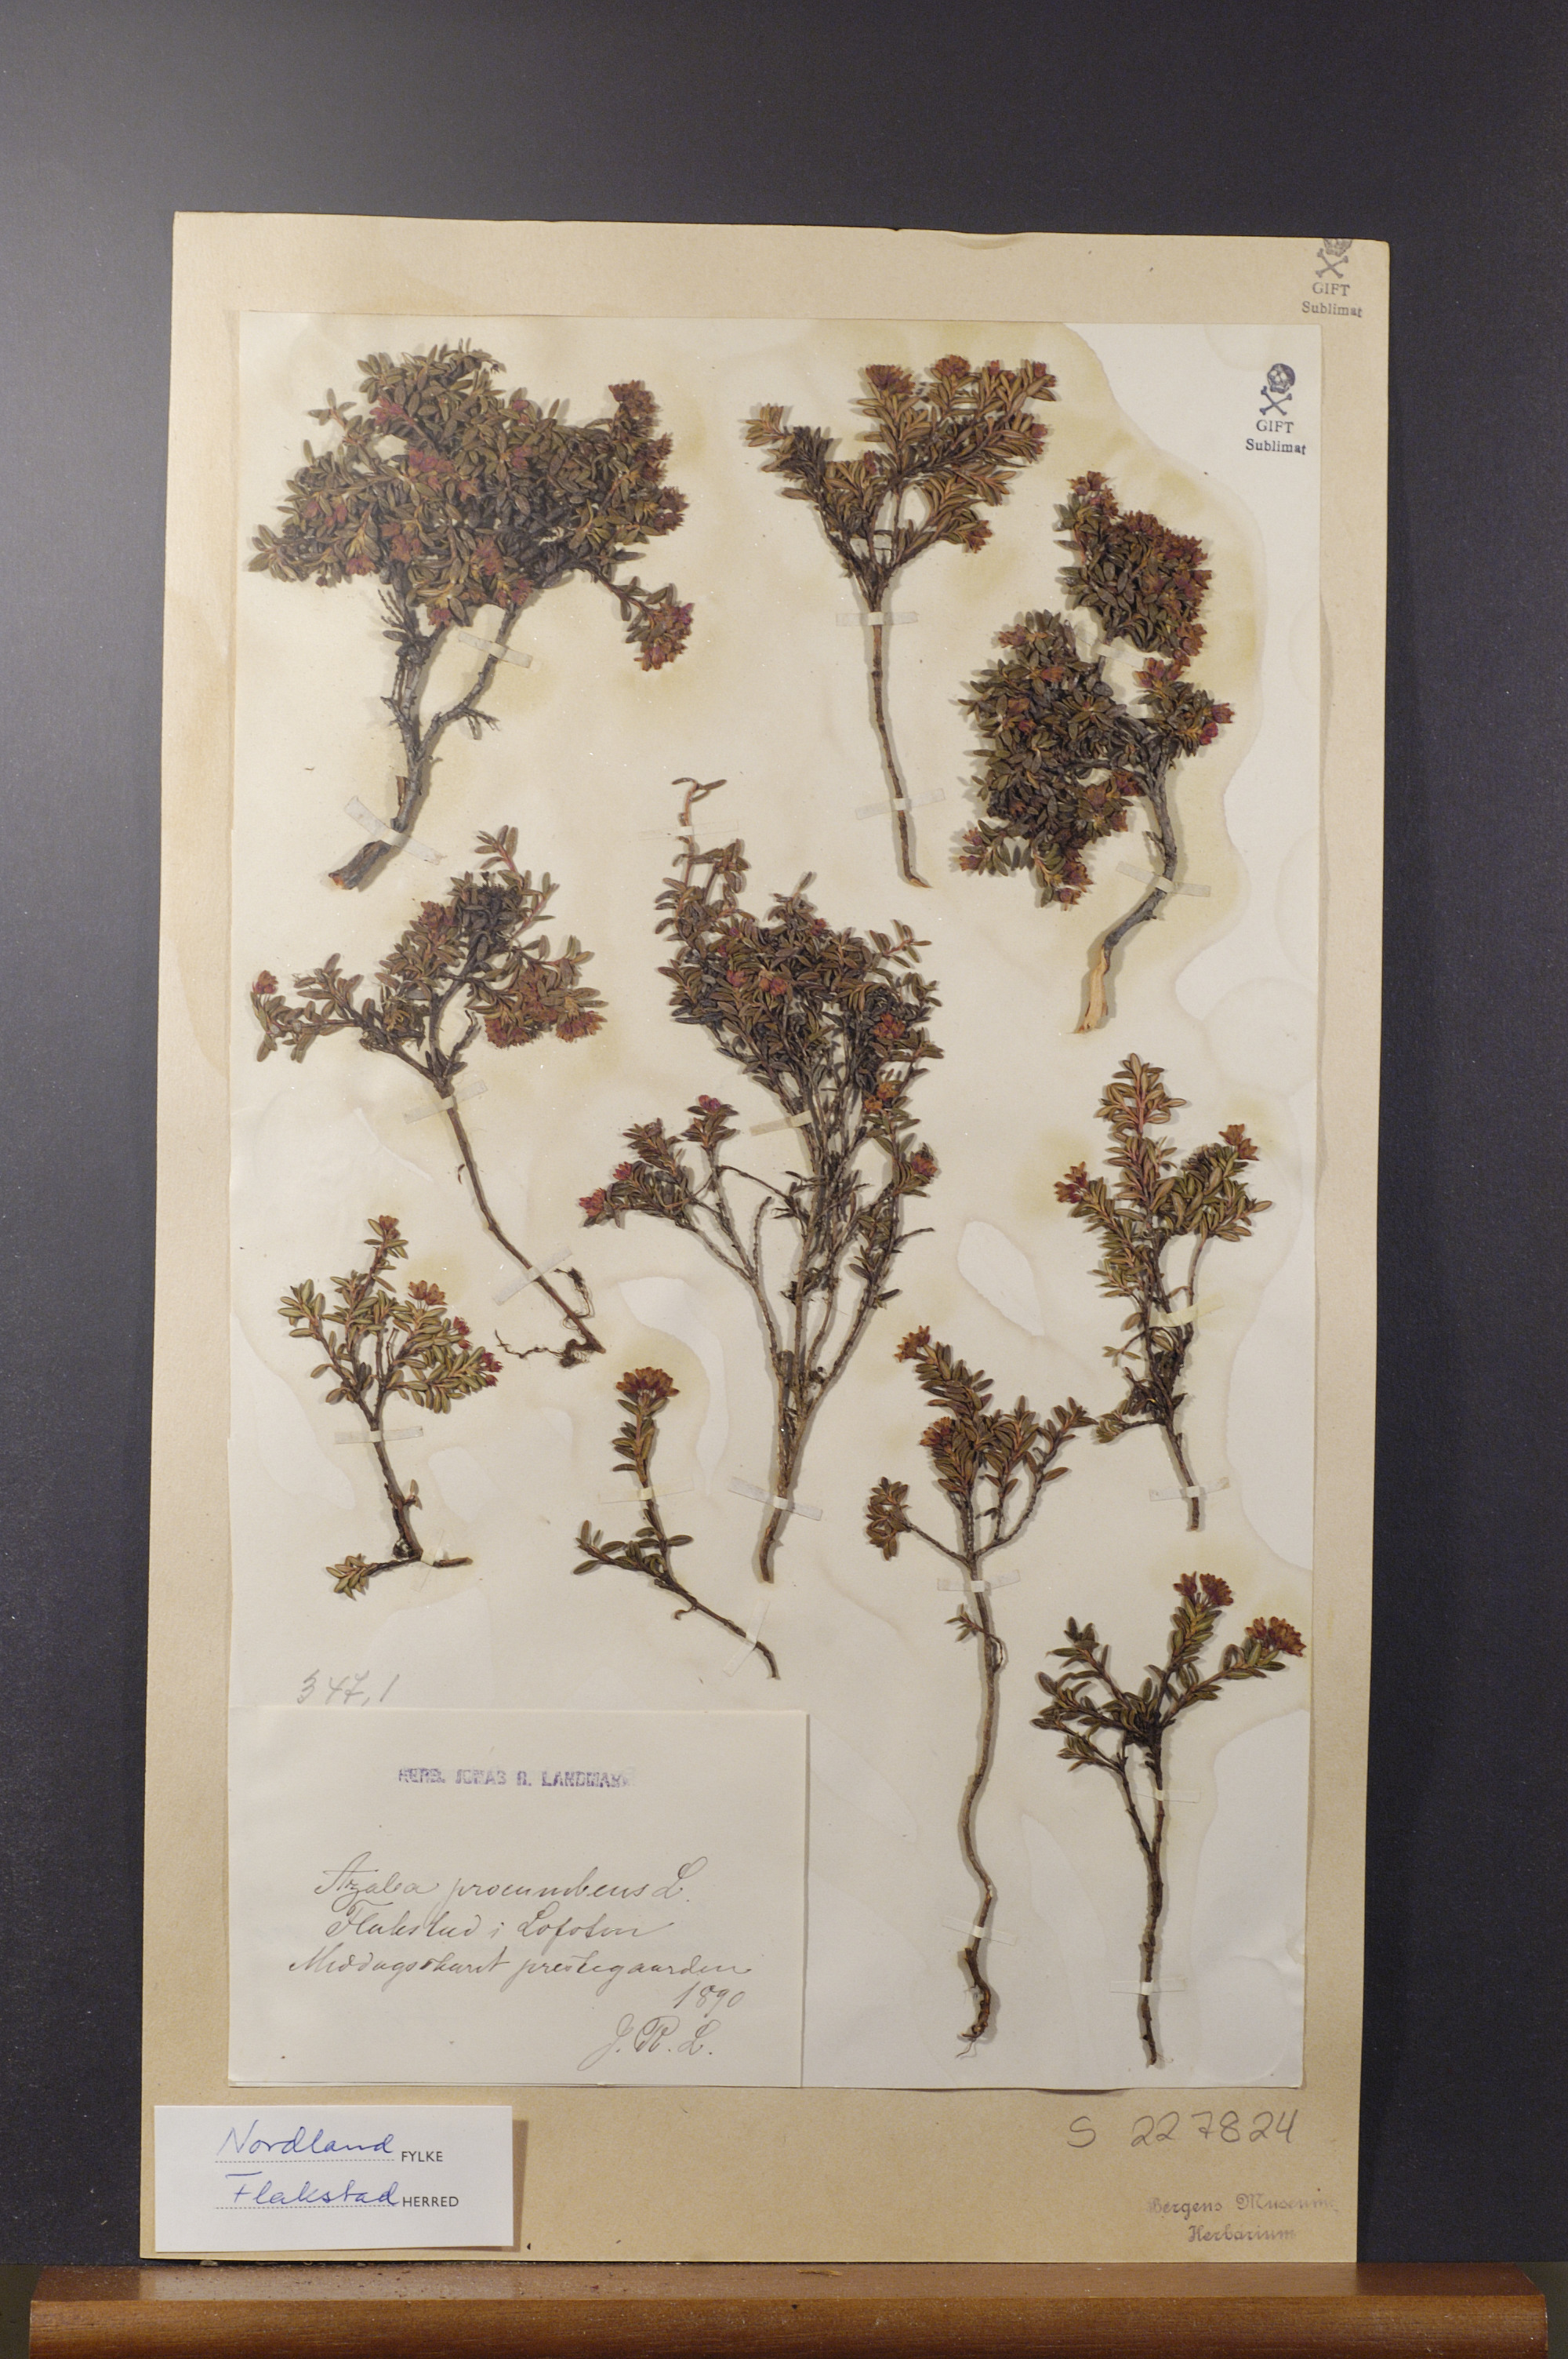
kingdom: Plantae
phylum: Tracheophyta
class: Magnoliopsida
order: Ericales
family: Ericaceae
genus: Kalmia
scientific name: Kalmia procumbens
